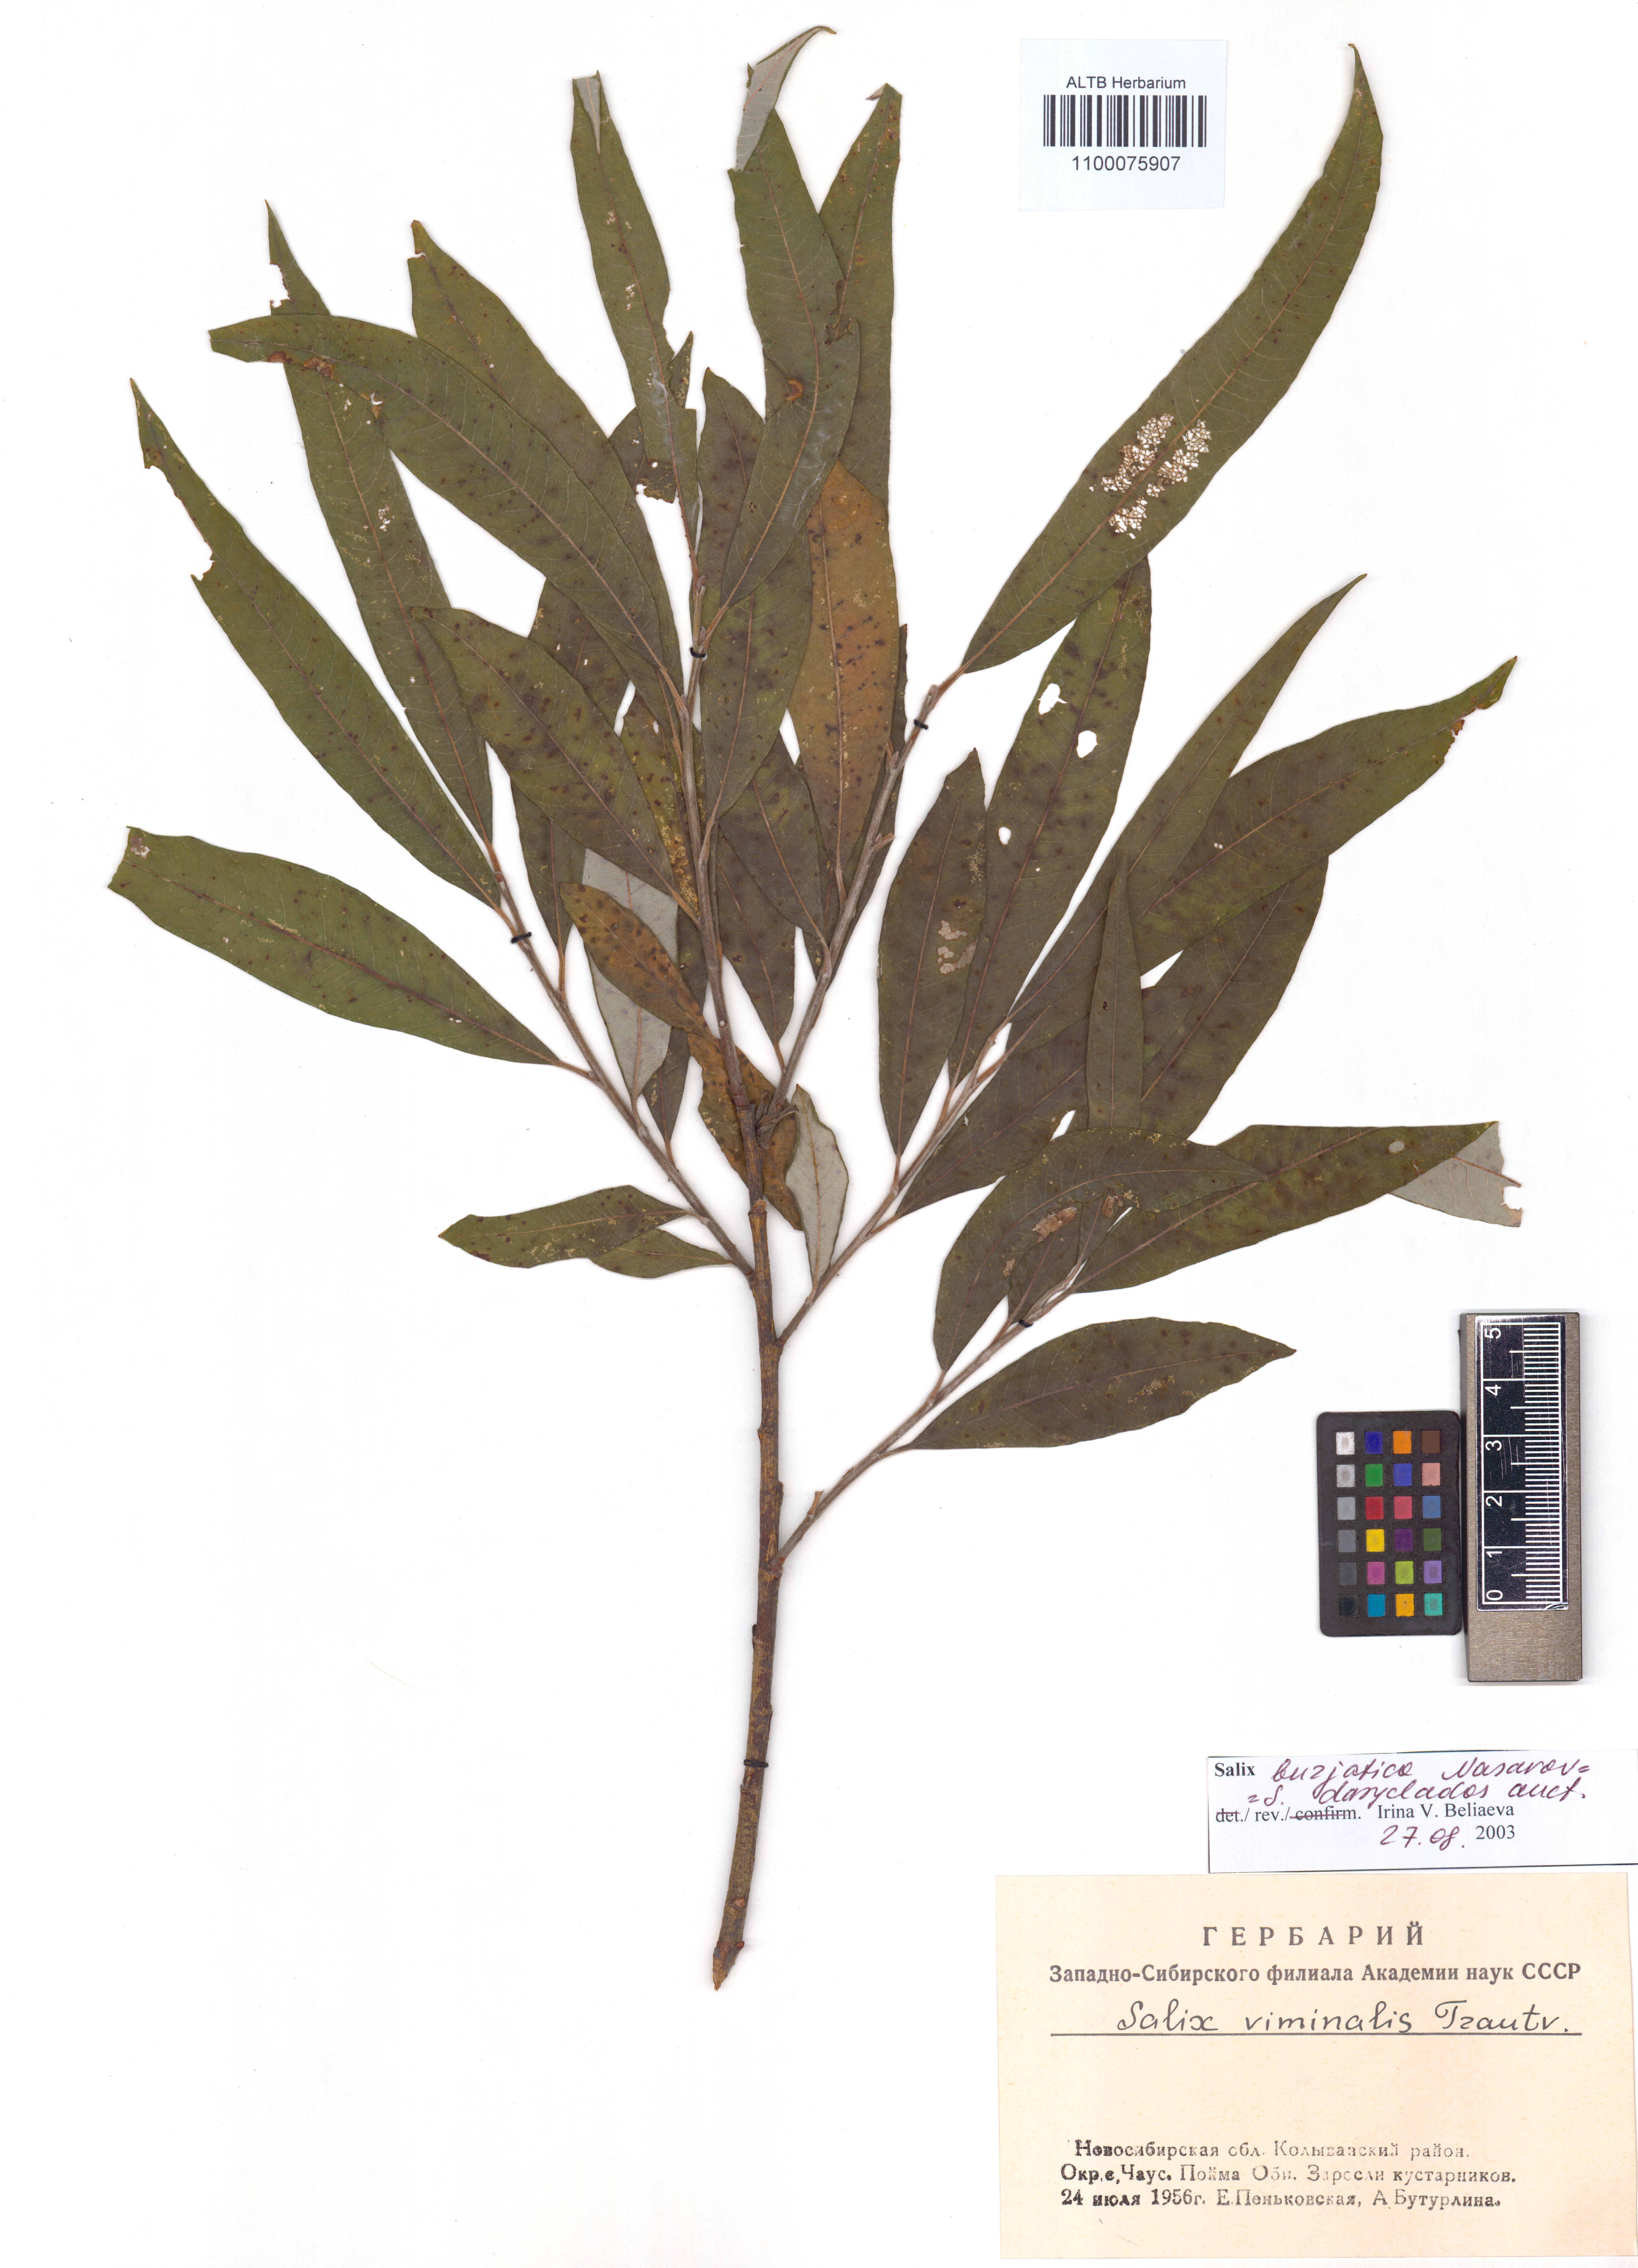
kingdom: Plantae
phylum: Tracheophyta
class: Magnoliopsida
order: Malpighiales
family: Salicaceae
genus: Salix
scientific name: Salix gmelinii
